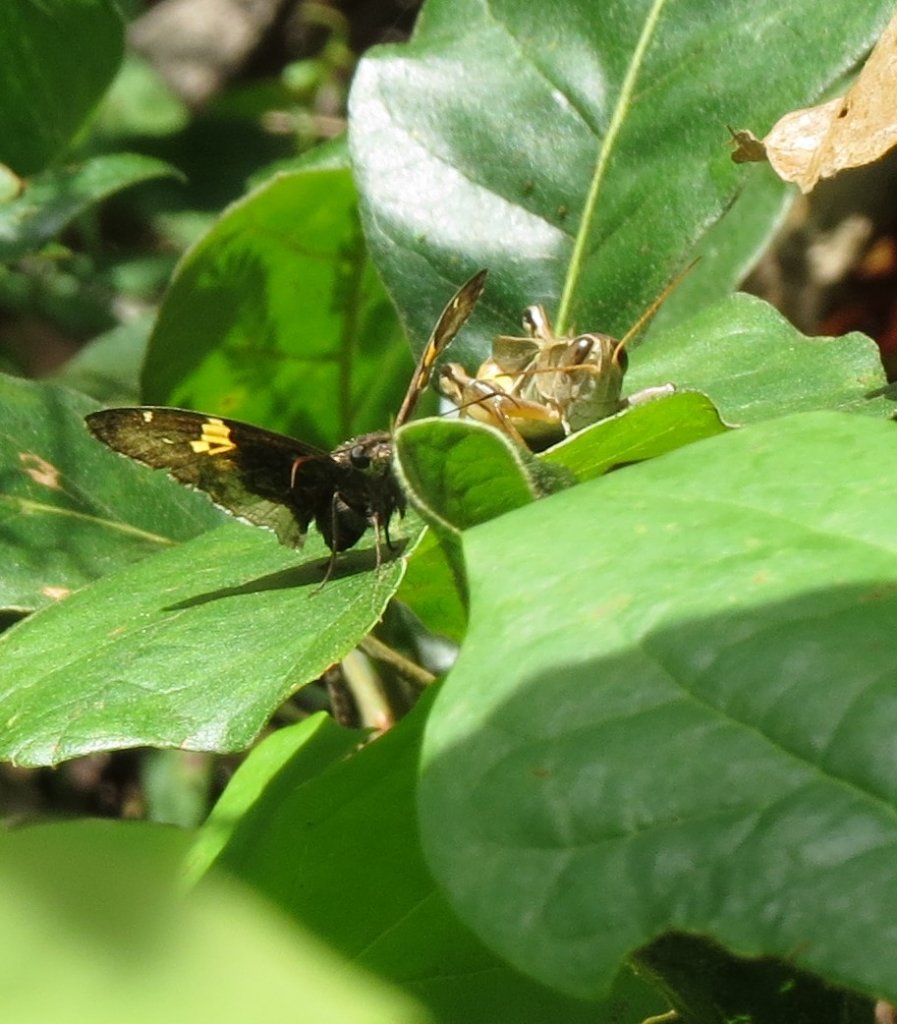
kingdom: Animalia
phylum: Arthropoda
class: Insecta
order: Lepidoptera
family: Hesperiidae
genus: Achalarus
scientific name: Achalarus lyciades
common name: Hoary Edge
